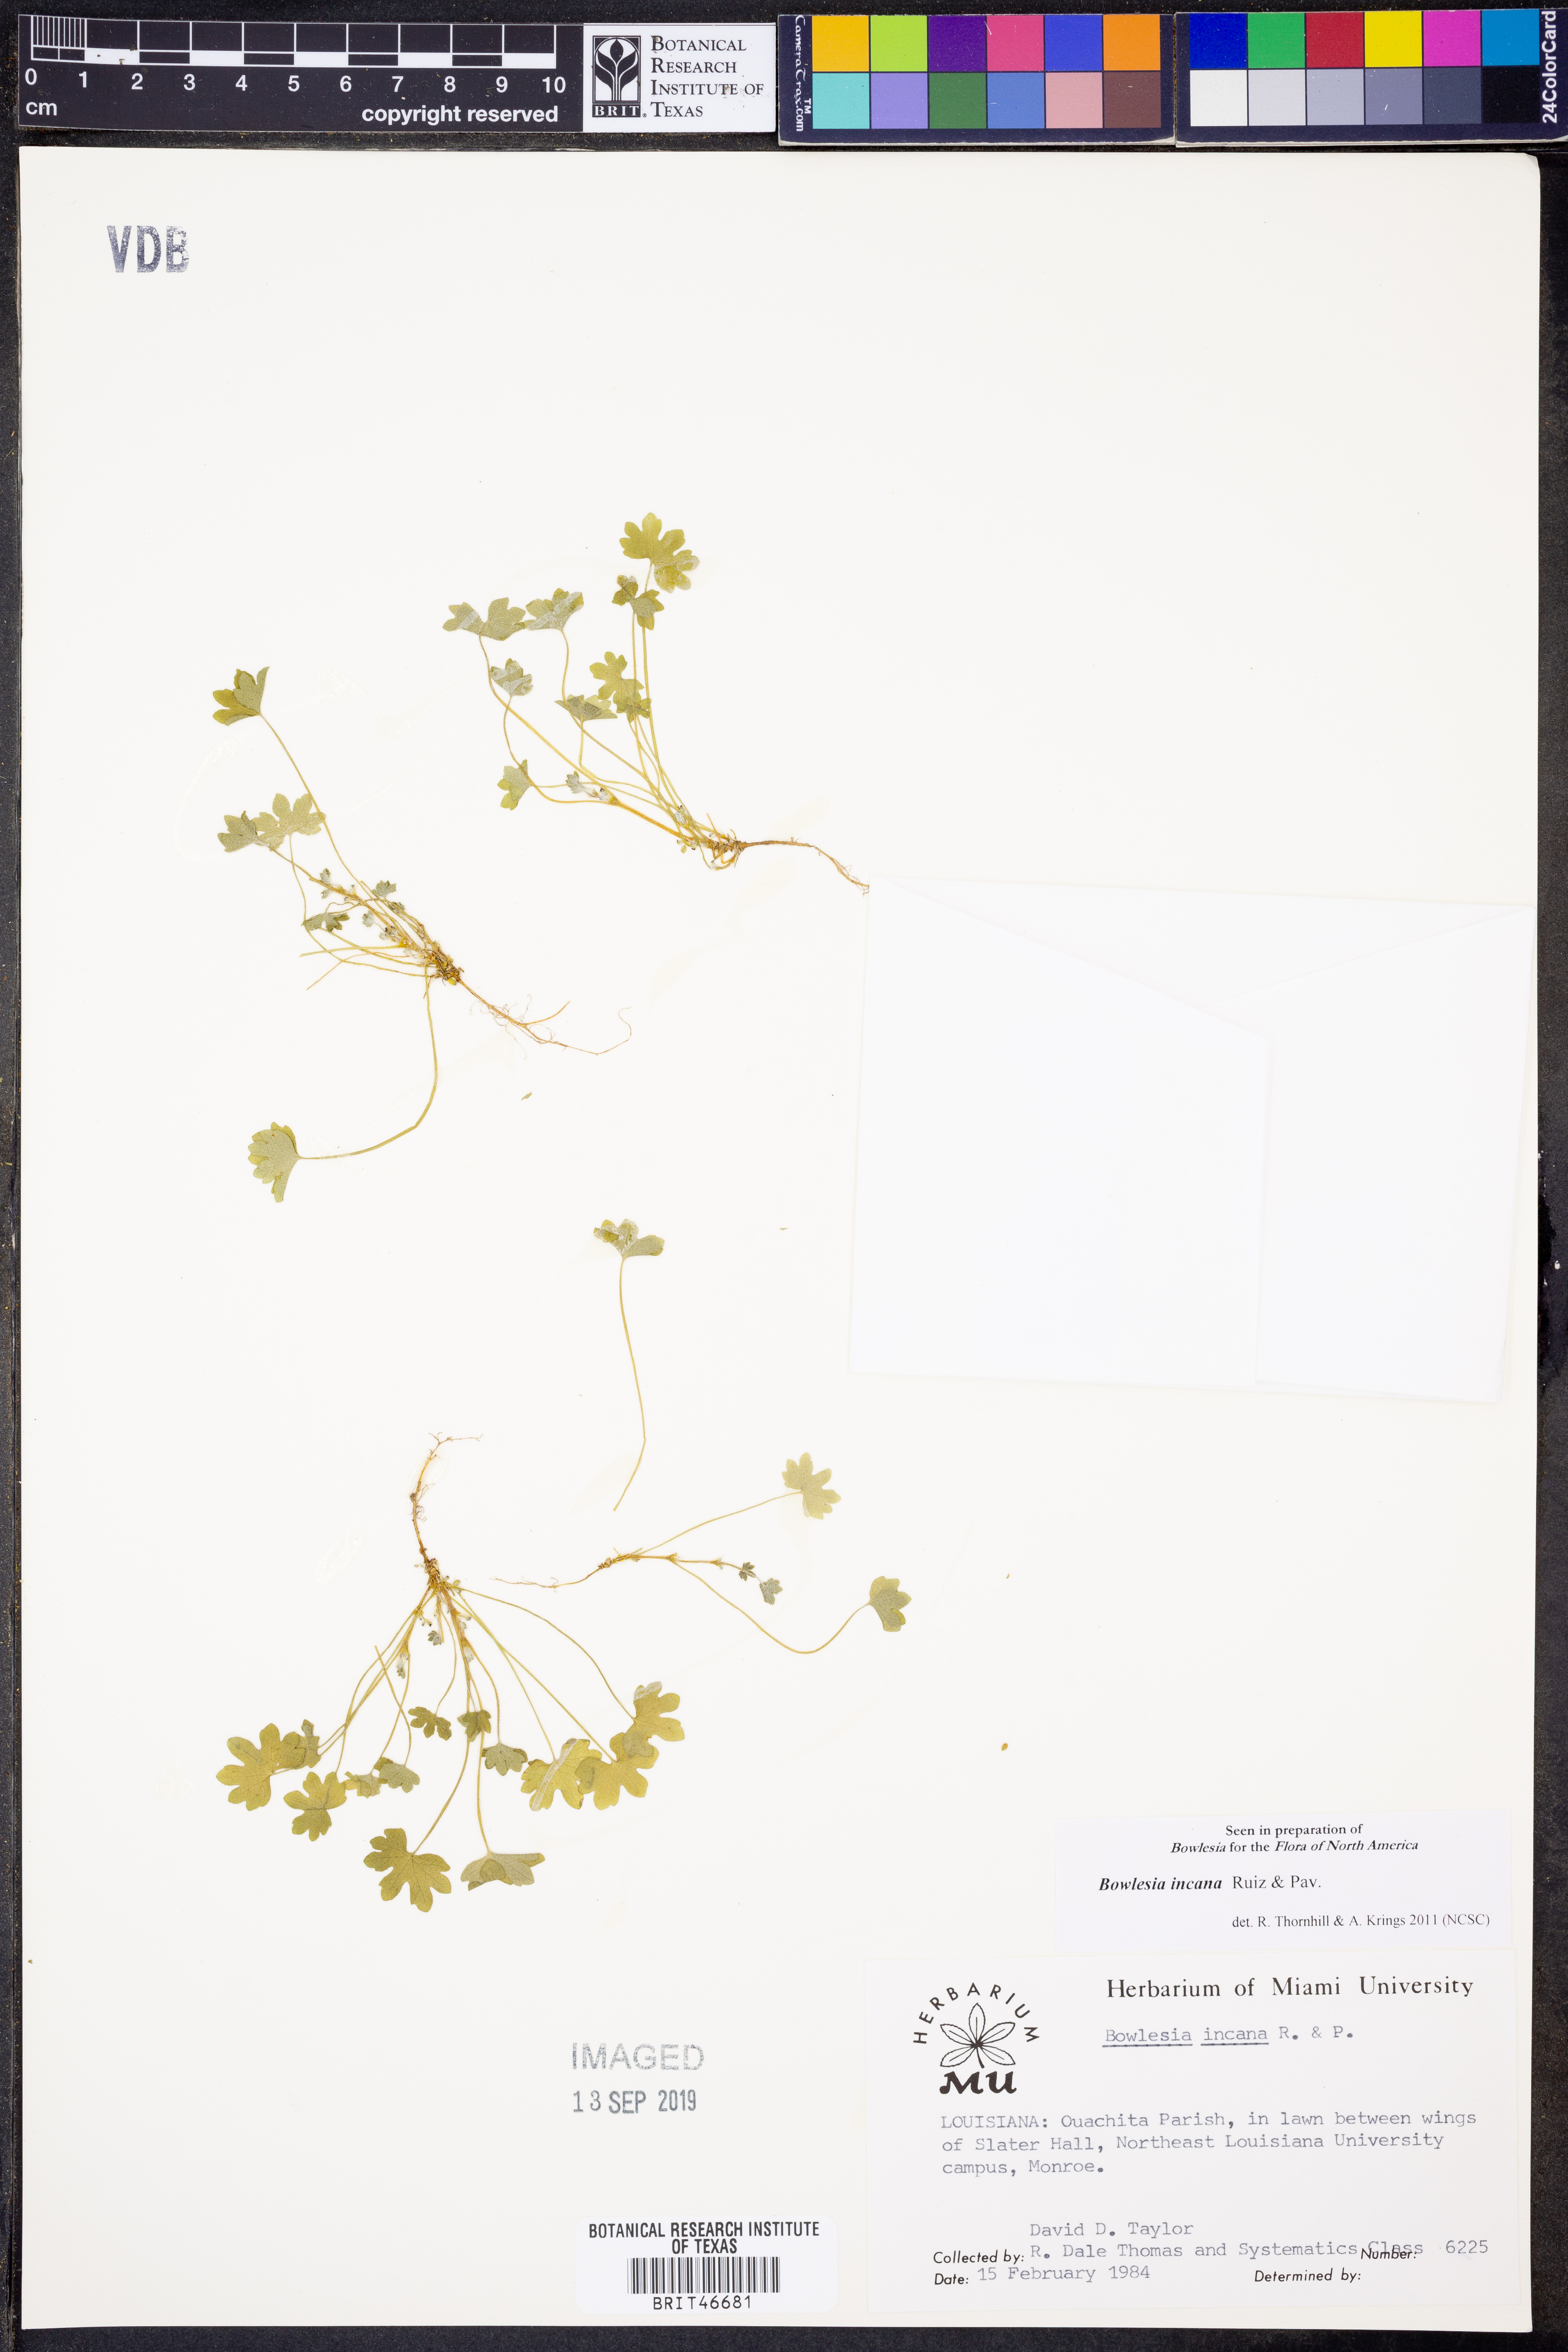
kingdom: Plantae
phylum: Tracheophyta
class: Magnoliopsida
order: Apiales
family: Apiaceae
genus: Bowlesia
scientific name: Bowlesia incana
